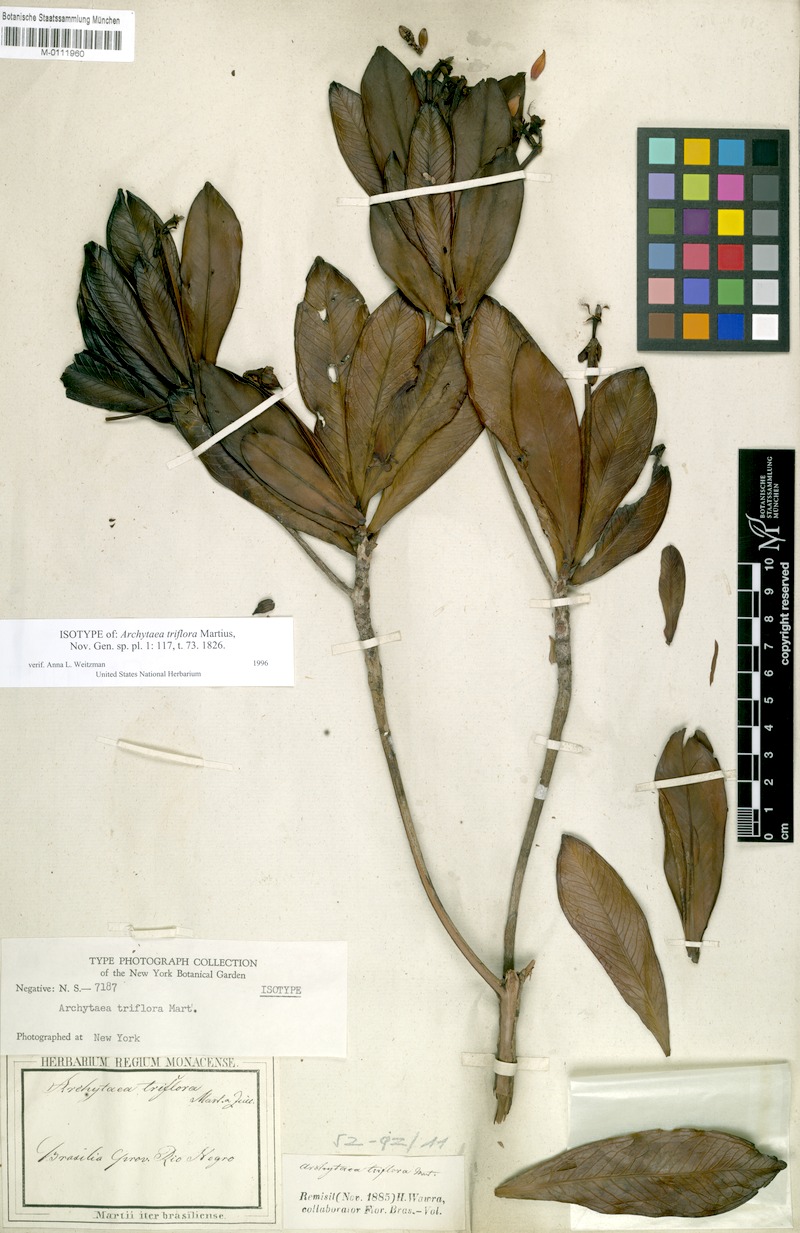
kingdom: Plantae
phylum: Tracheophyta
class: Magnoliopsida
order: Malpighiales
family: Bonnetiaceae
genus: Archytaea
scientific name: Archytaea triflora
